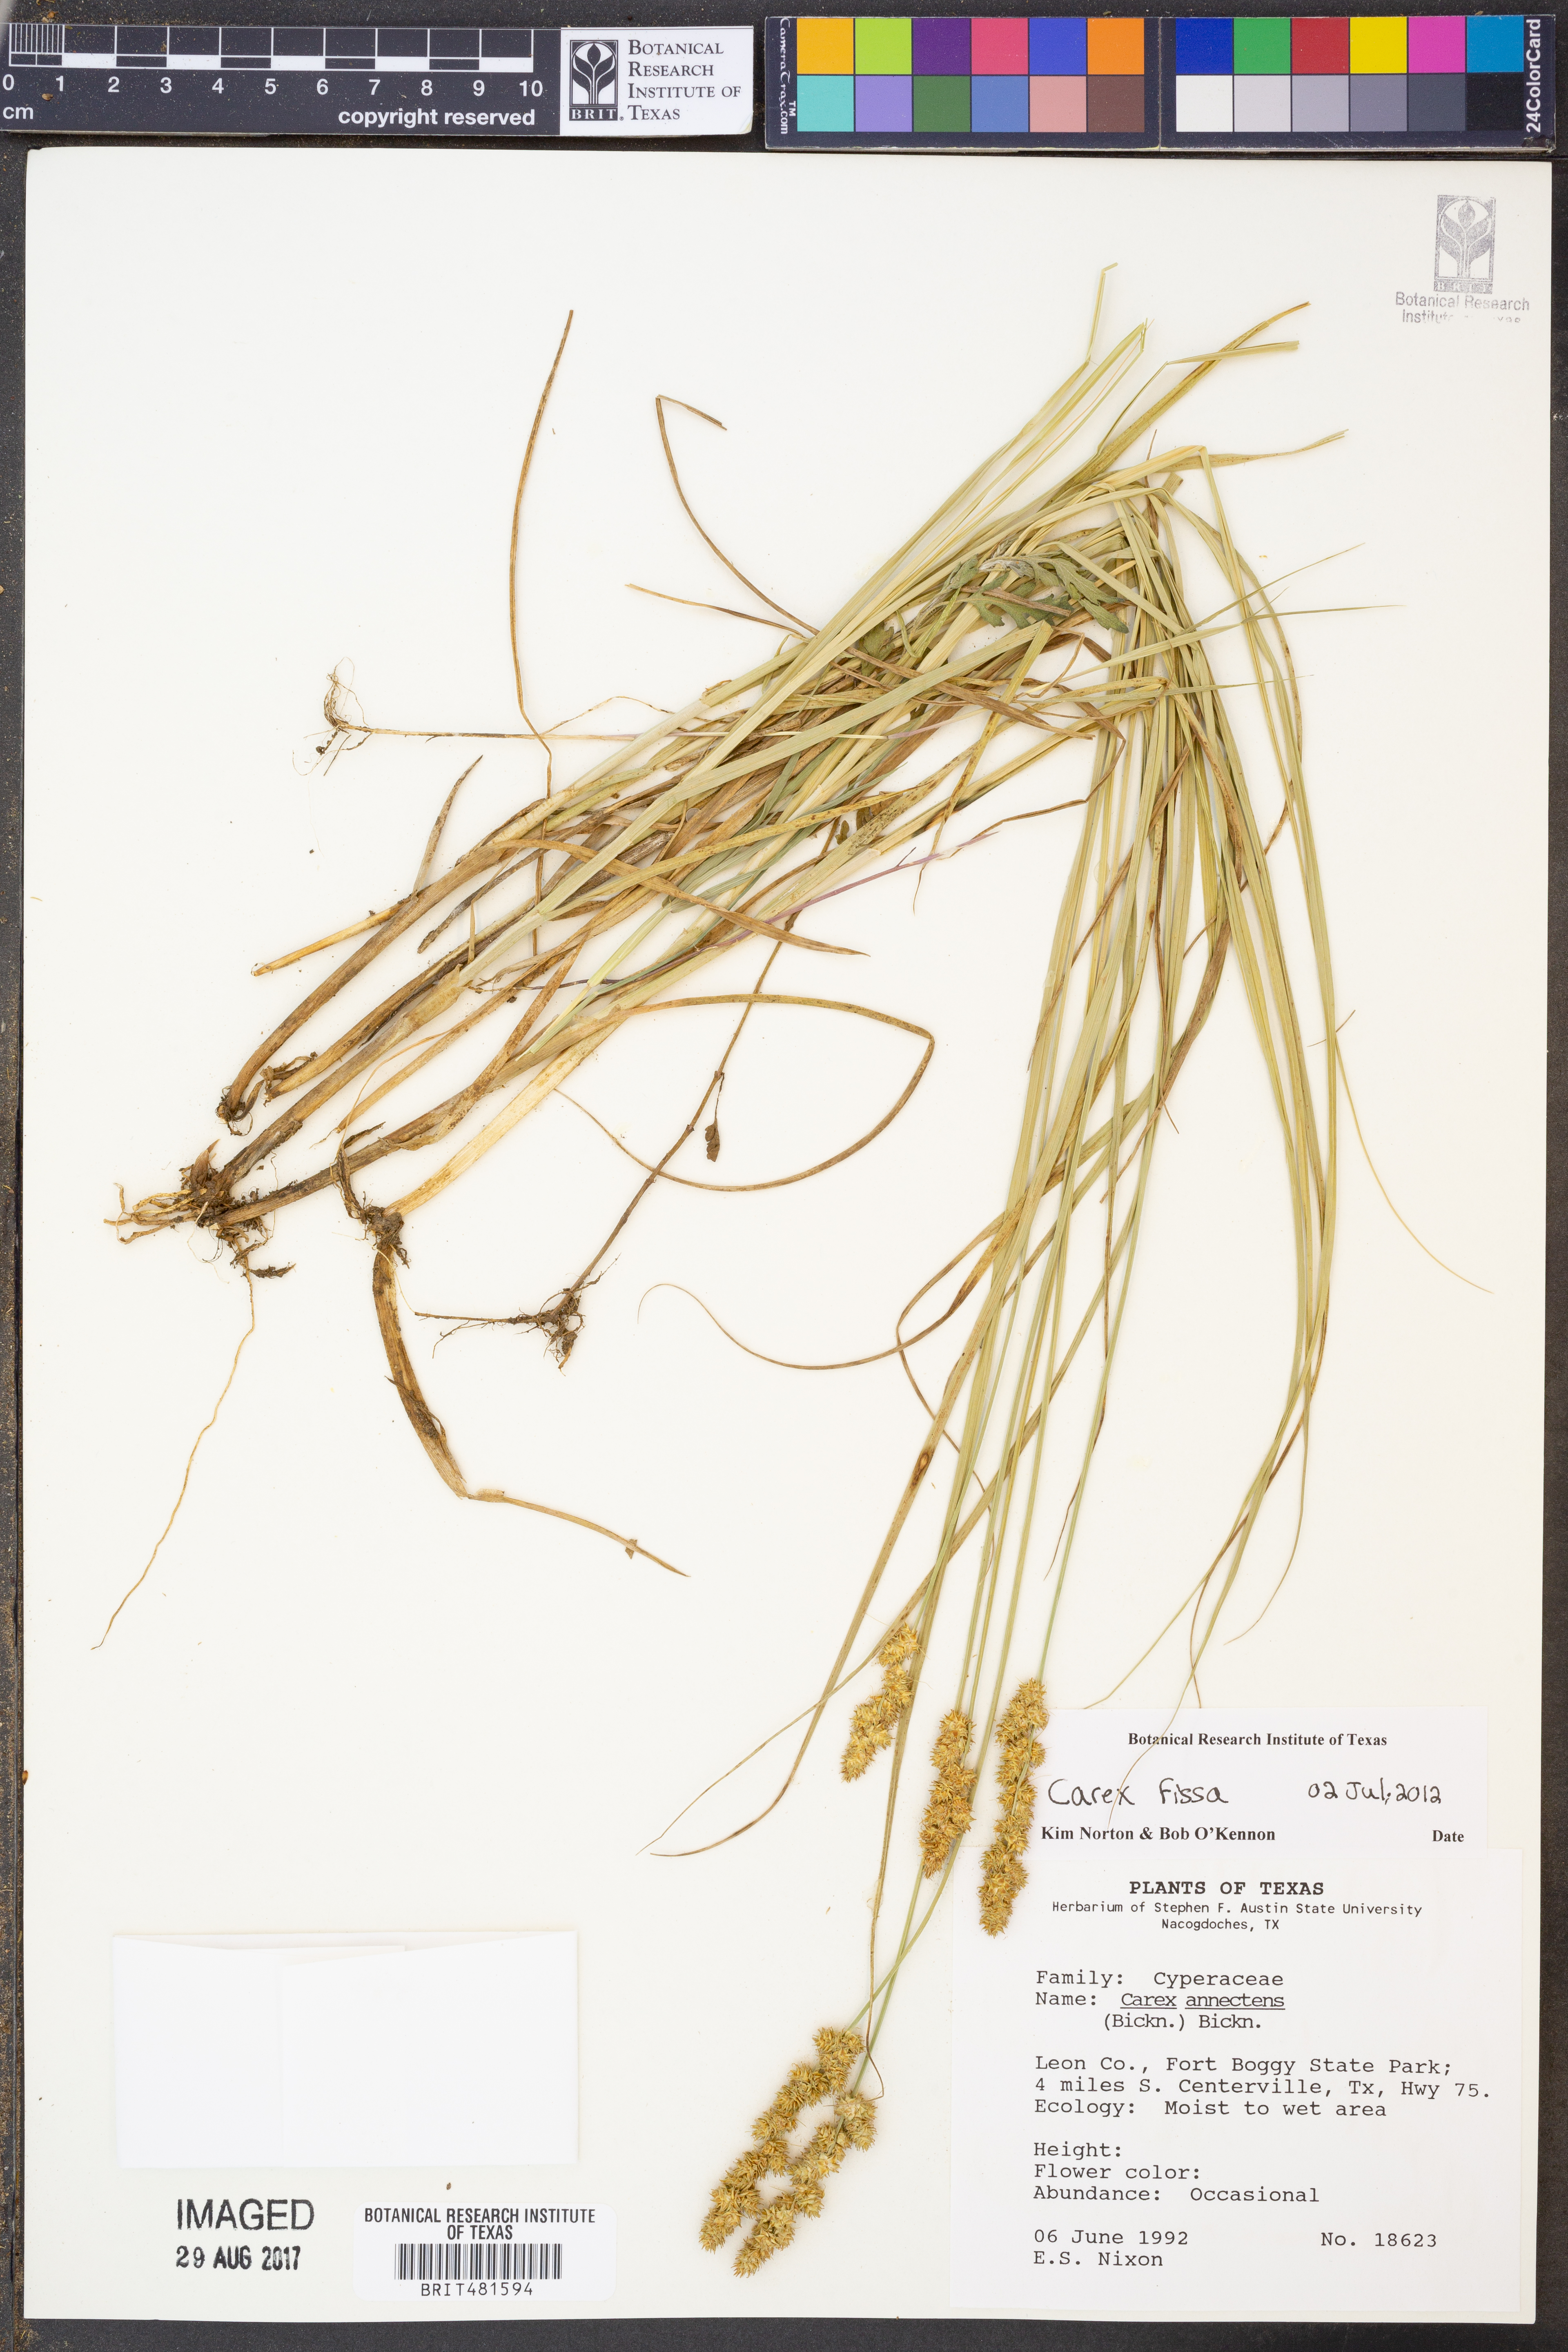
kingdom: Plantae
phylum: Tracheophyta
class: Liliopsida
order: Poales
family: Cyperaceae
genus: Carex
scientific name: Carex fissa
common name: Hammock sedge
